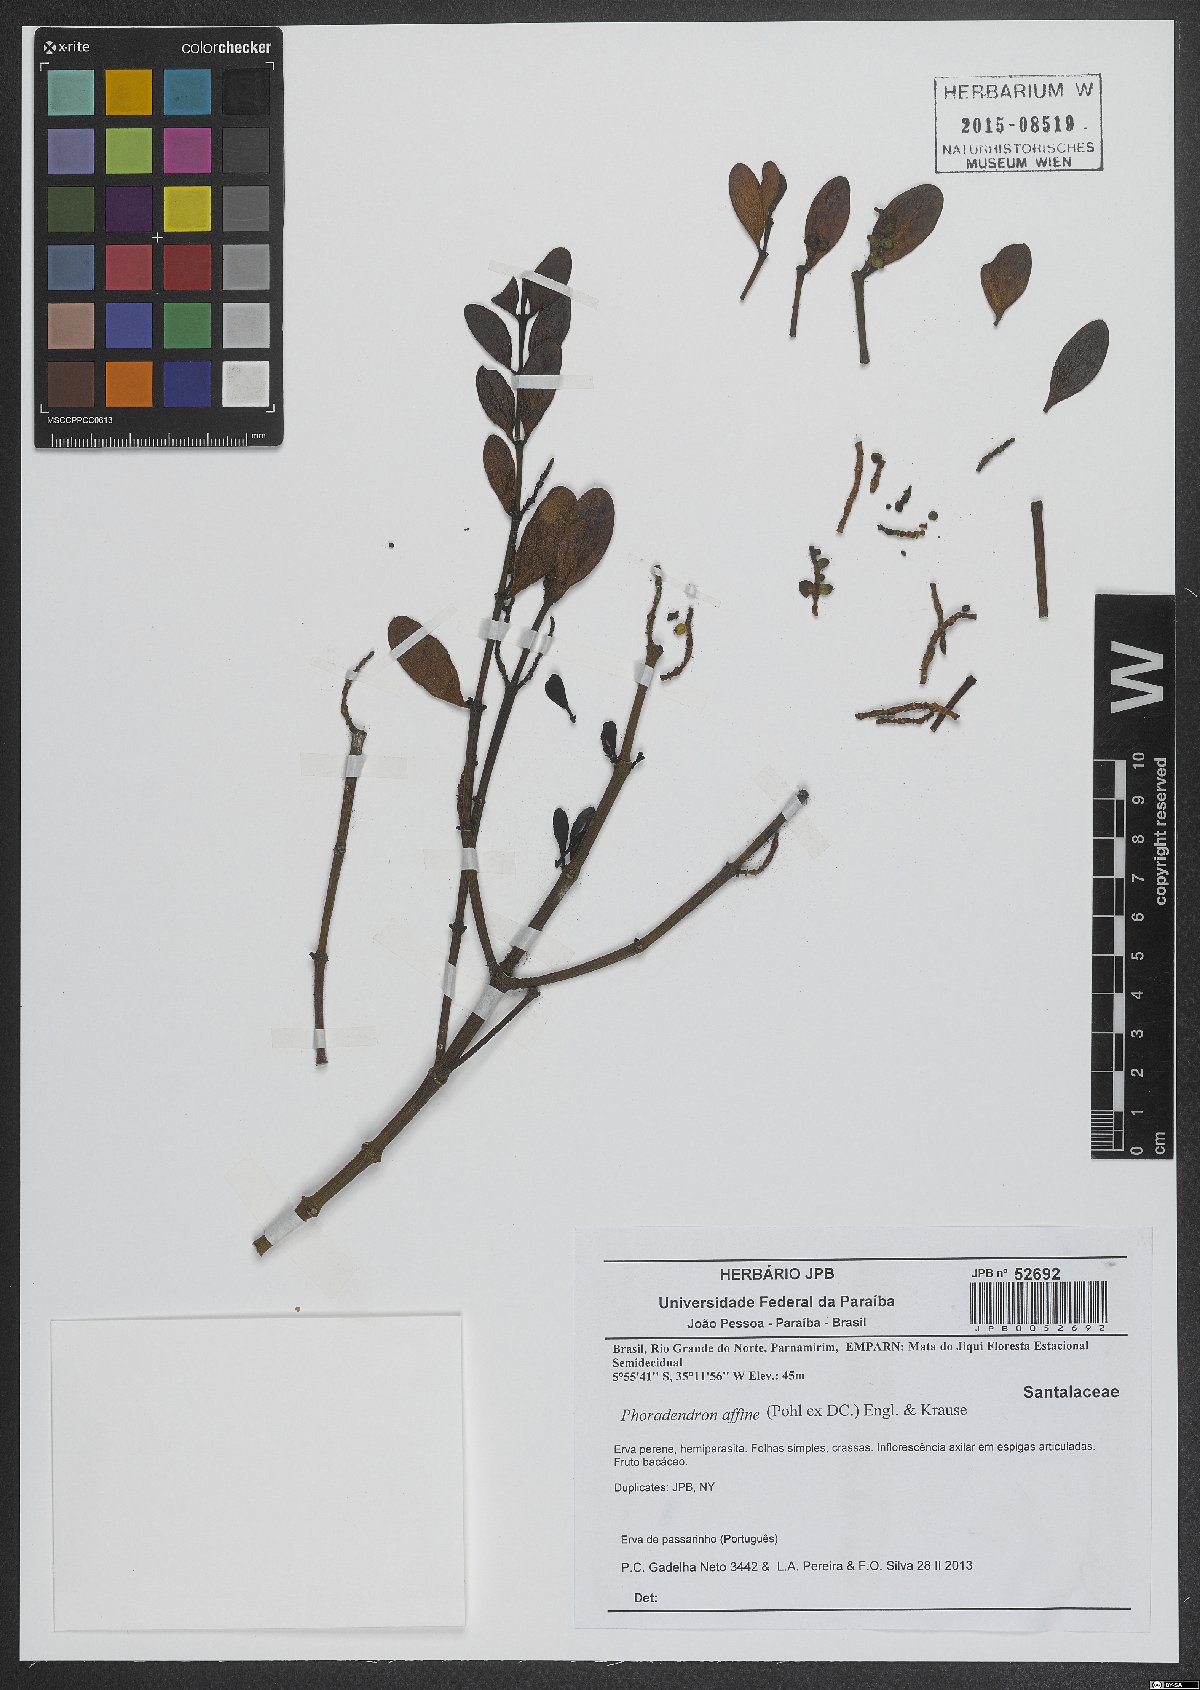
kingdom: Plantae
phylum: Tracheophyta
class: Magnoliopsida
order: Santalales
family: Viscaceae
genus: Phoradendron
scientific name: Phoradendron affine
